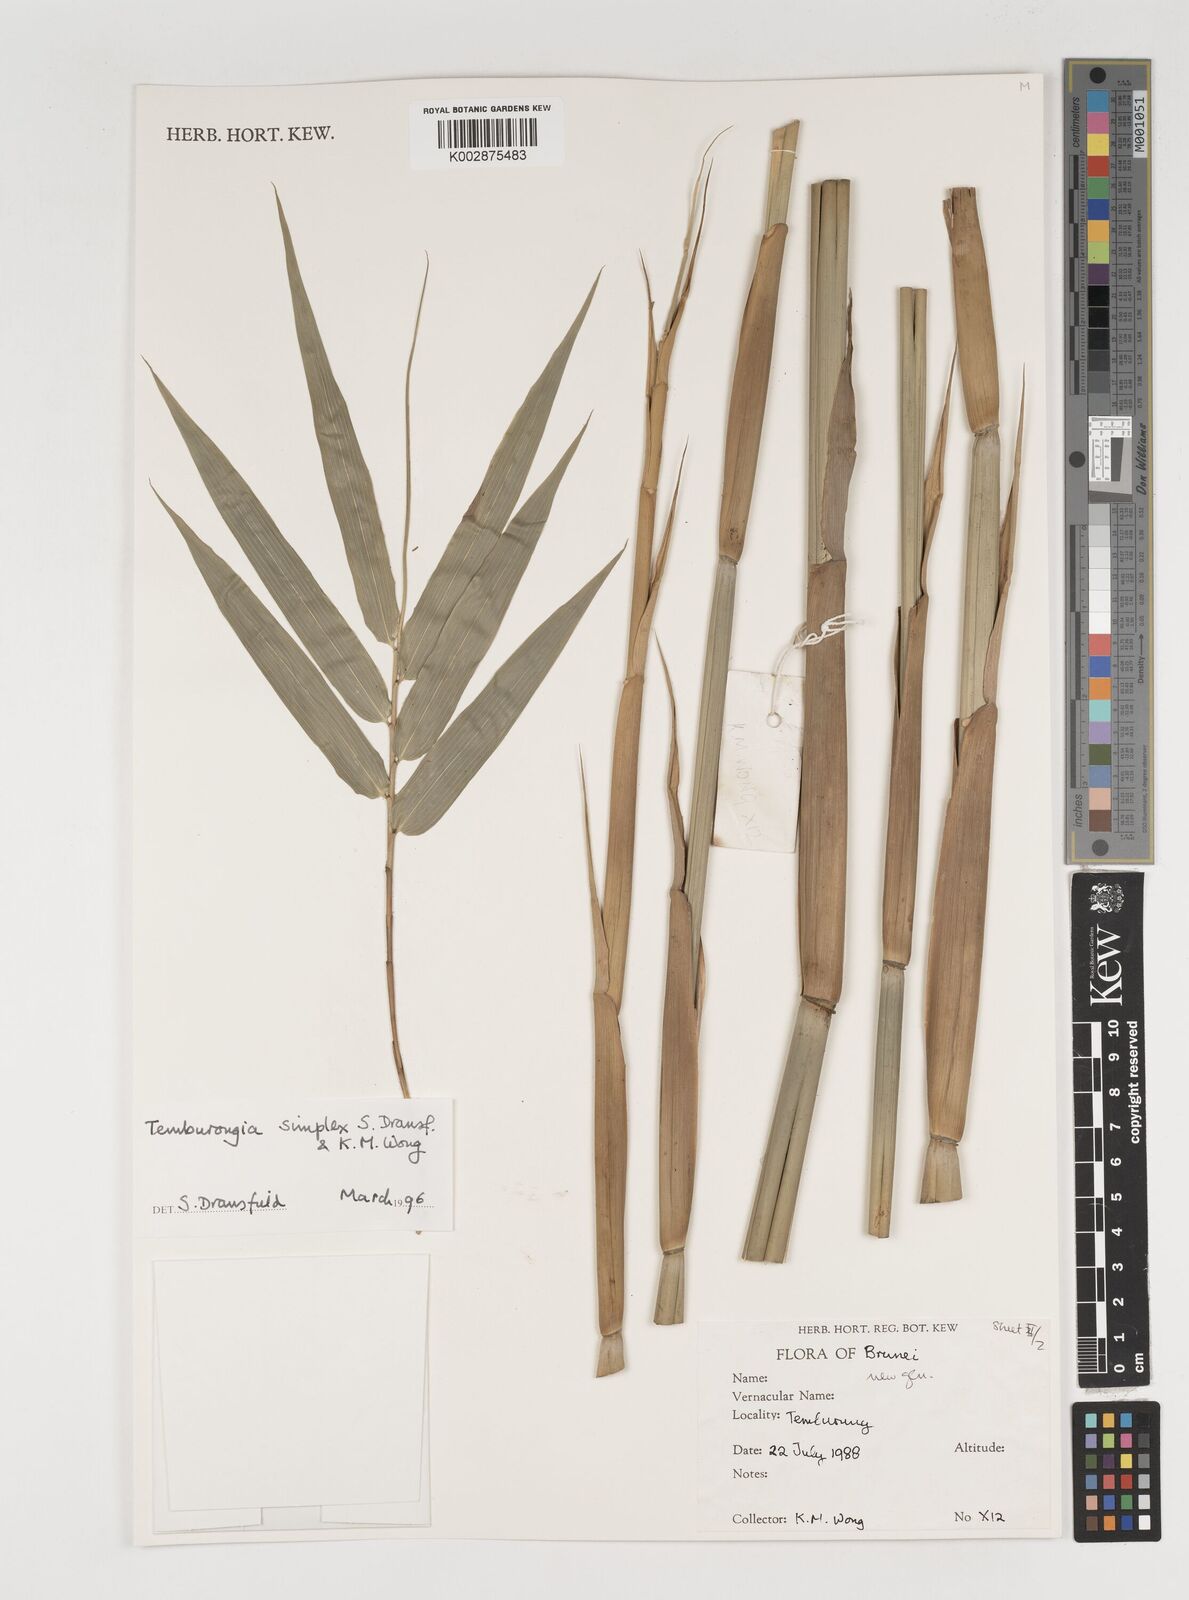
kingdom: Plantae
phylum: Tracheophyta
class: Liliopsida
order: Poales
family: Poaceae
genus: Temburongia
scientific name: Temburongia simplex
